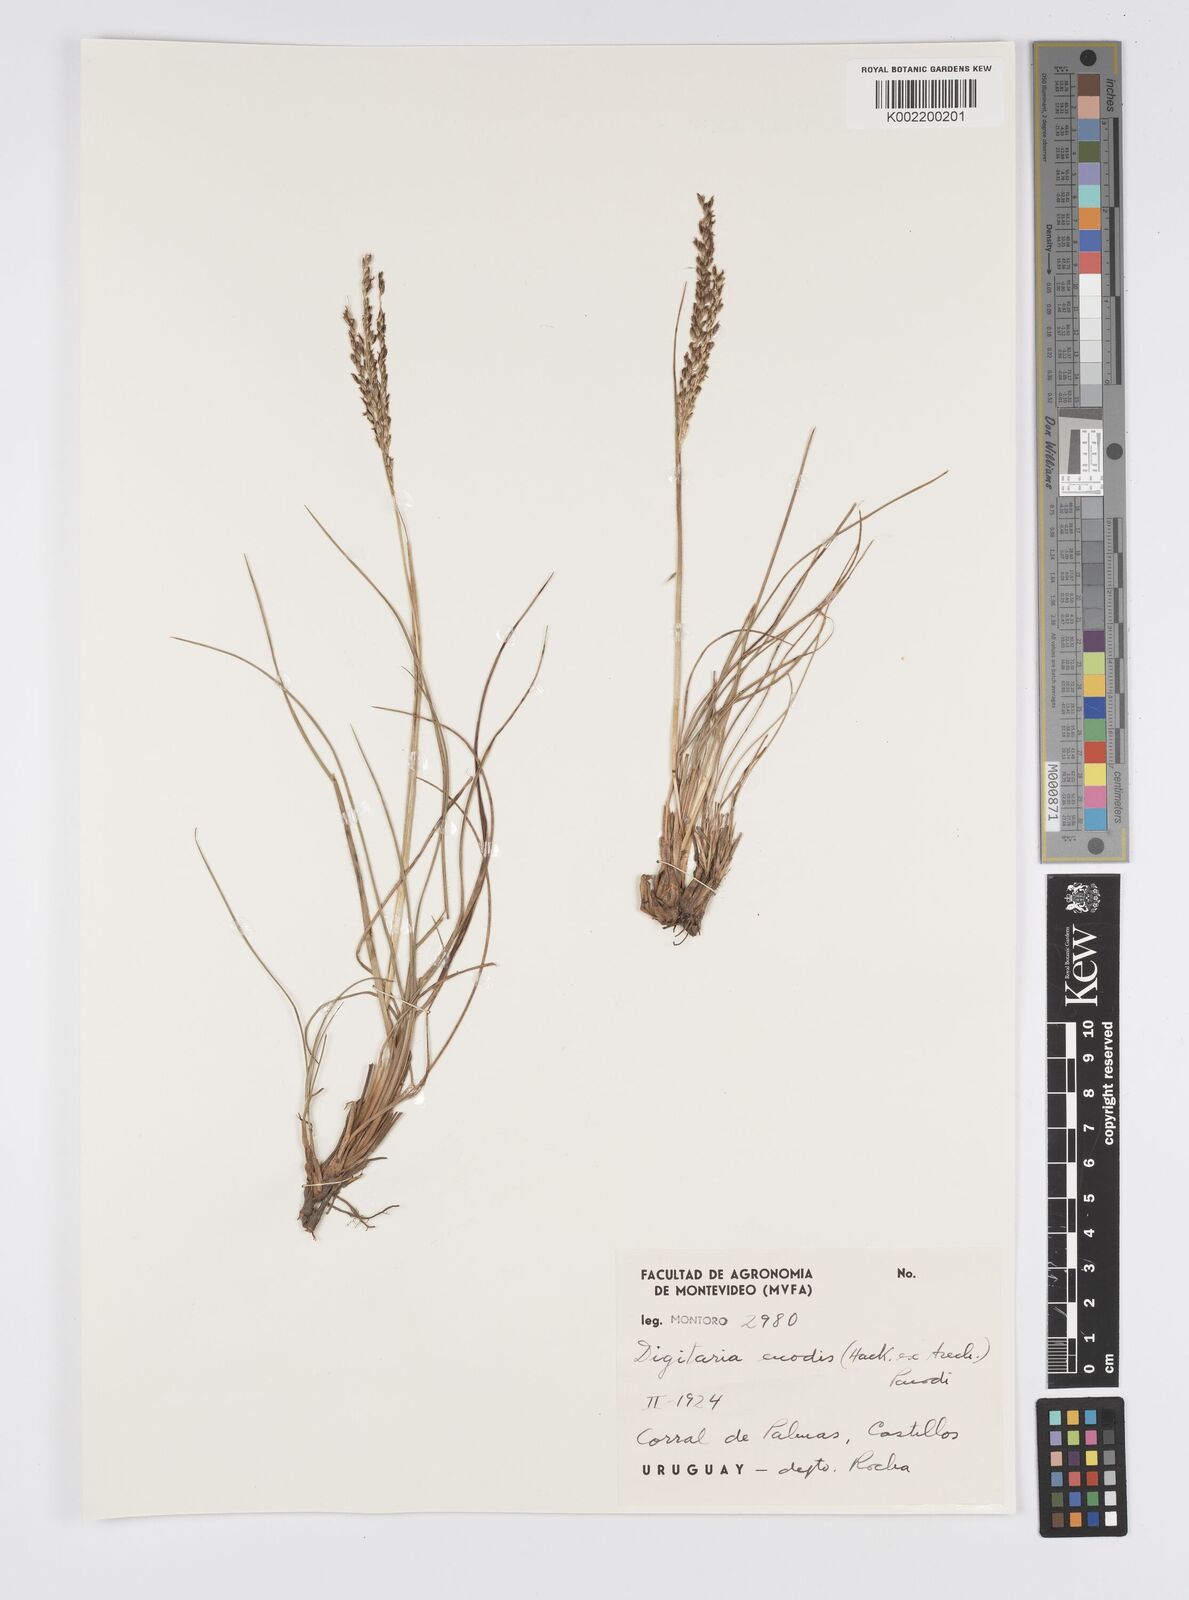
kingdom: Plantae
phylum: Tracheophyta
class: Liliopsida
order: Poales
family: Poaceae
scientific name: Poaceae
